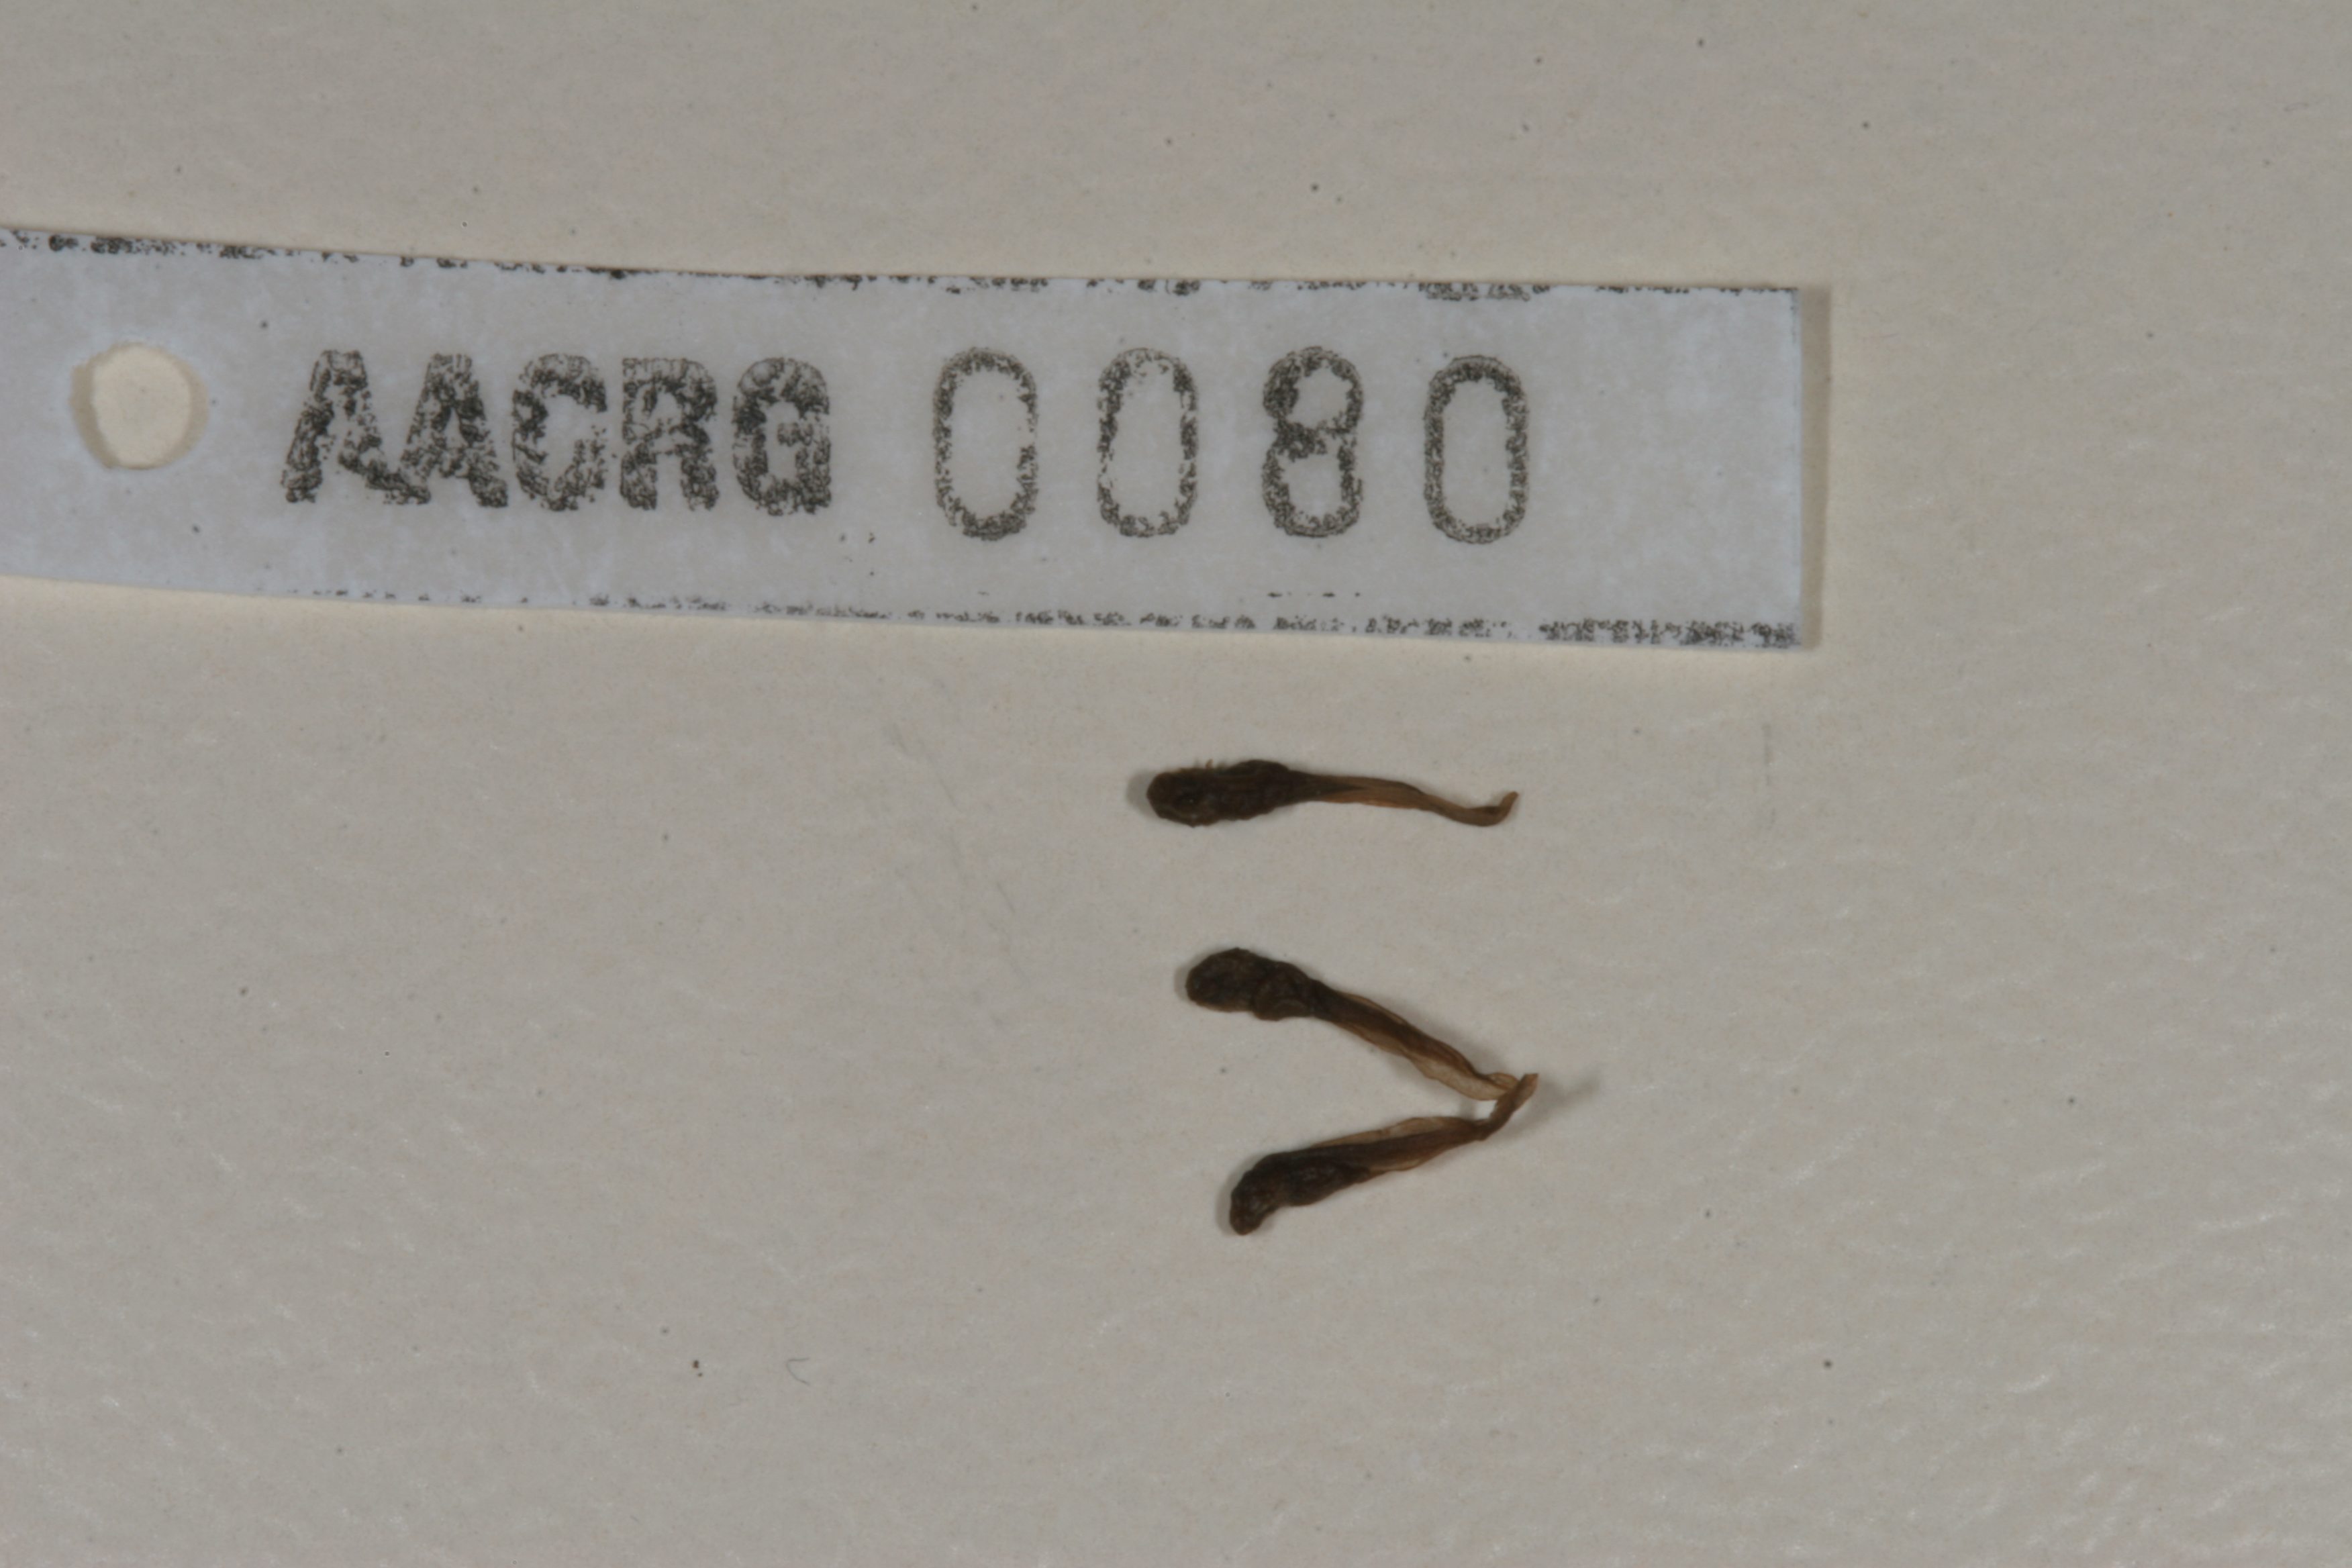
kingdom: Animalia
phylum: Chordata
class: Amphibia
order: Anura
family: Bufonidae
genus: Vandijkophrynus
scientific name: Vandijkophrynus gariepensis
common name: Gariep toad
